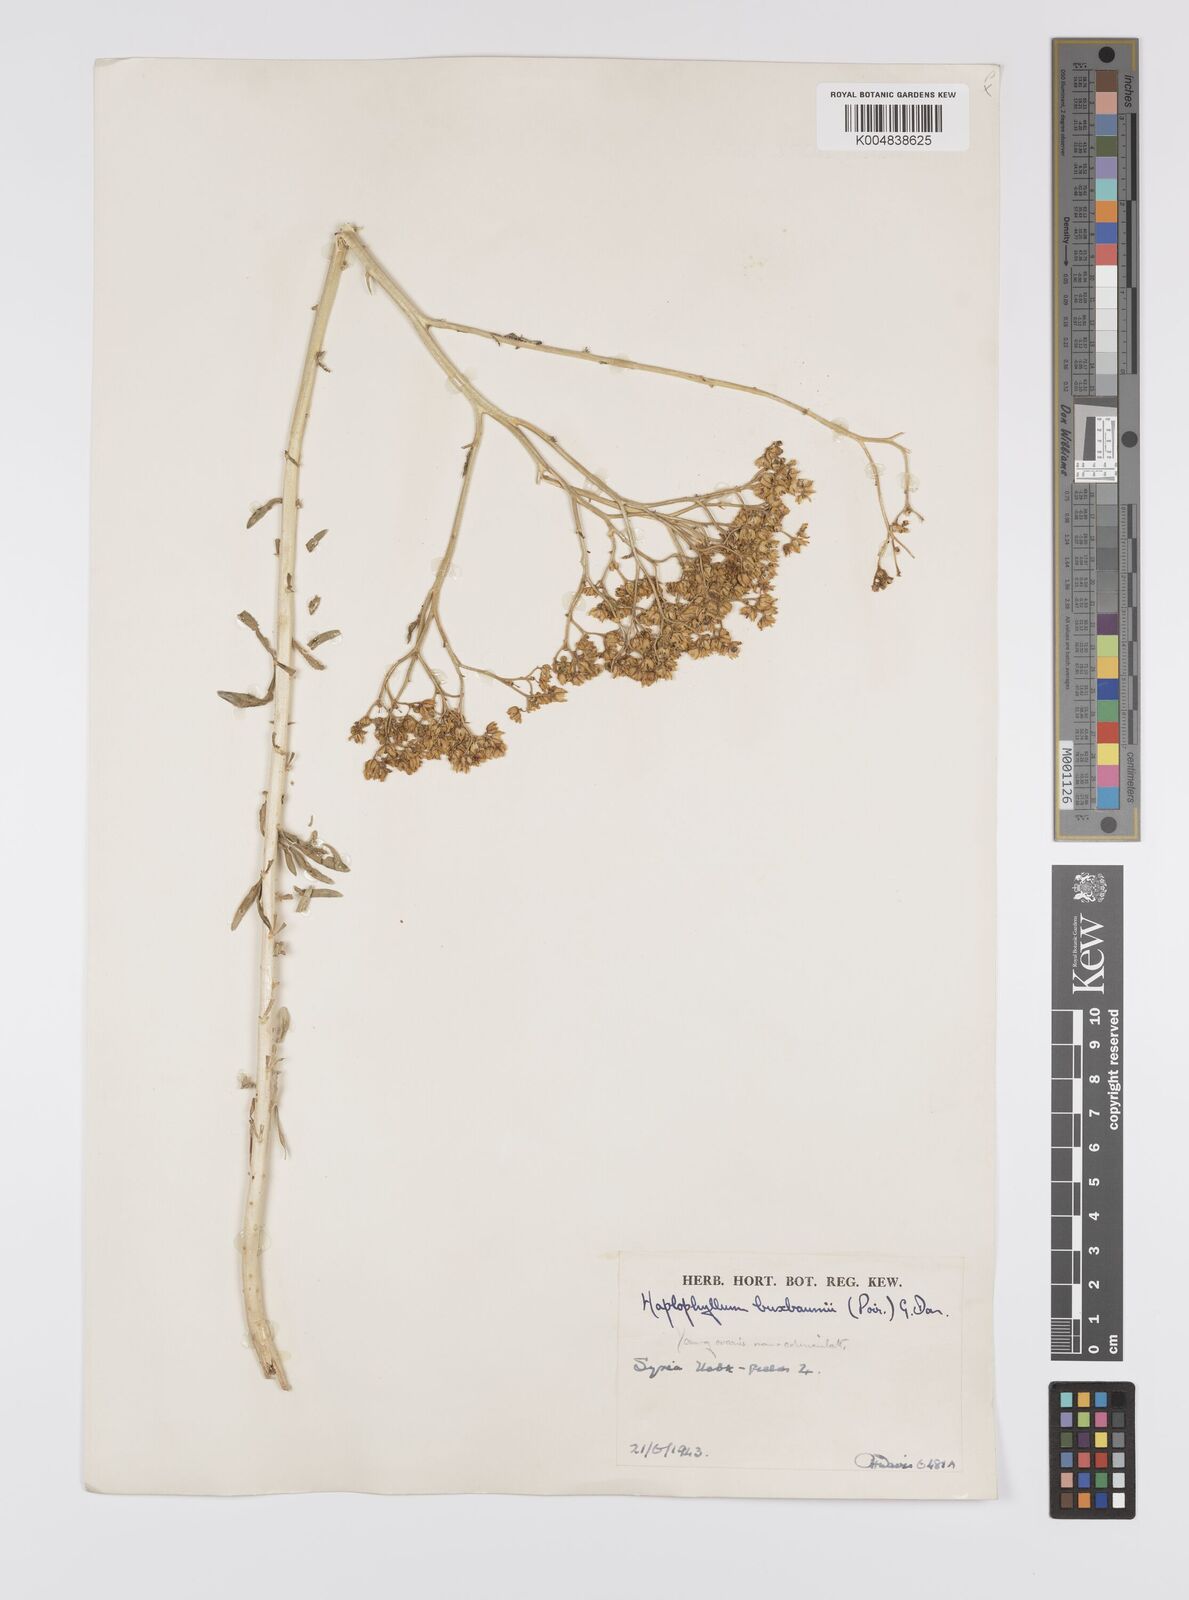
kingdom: Plantae
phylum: Tracheophyta
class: Magnoliopsida
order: Sapindales
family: Rutaceae
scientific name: Rutaceae
